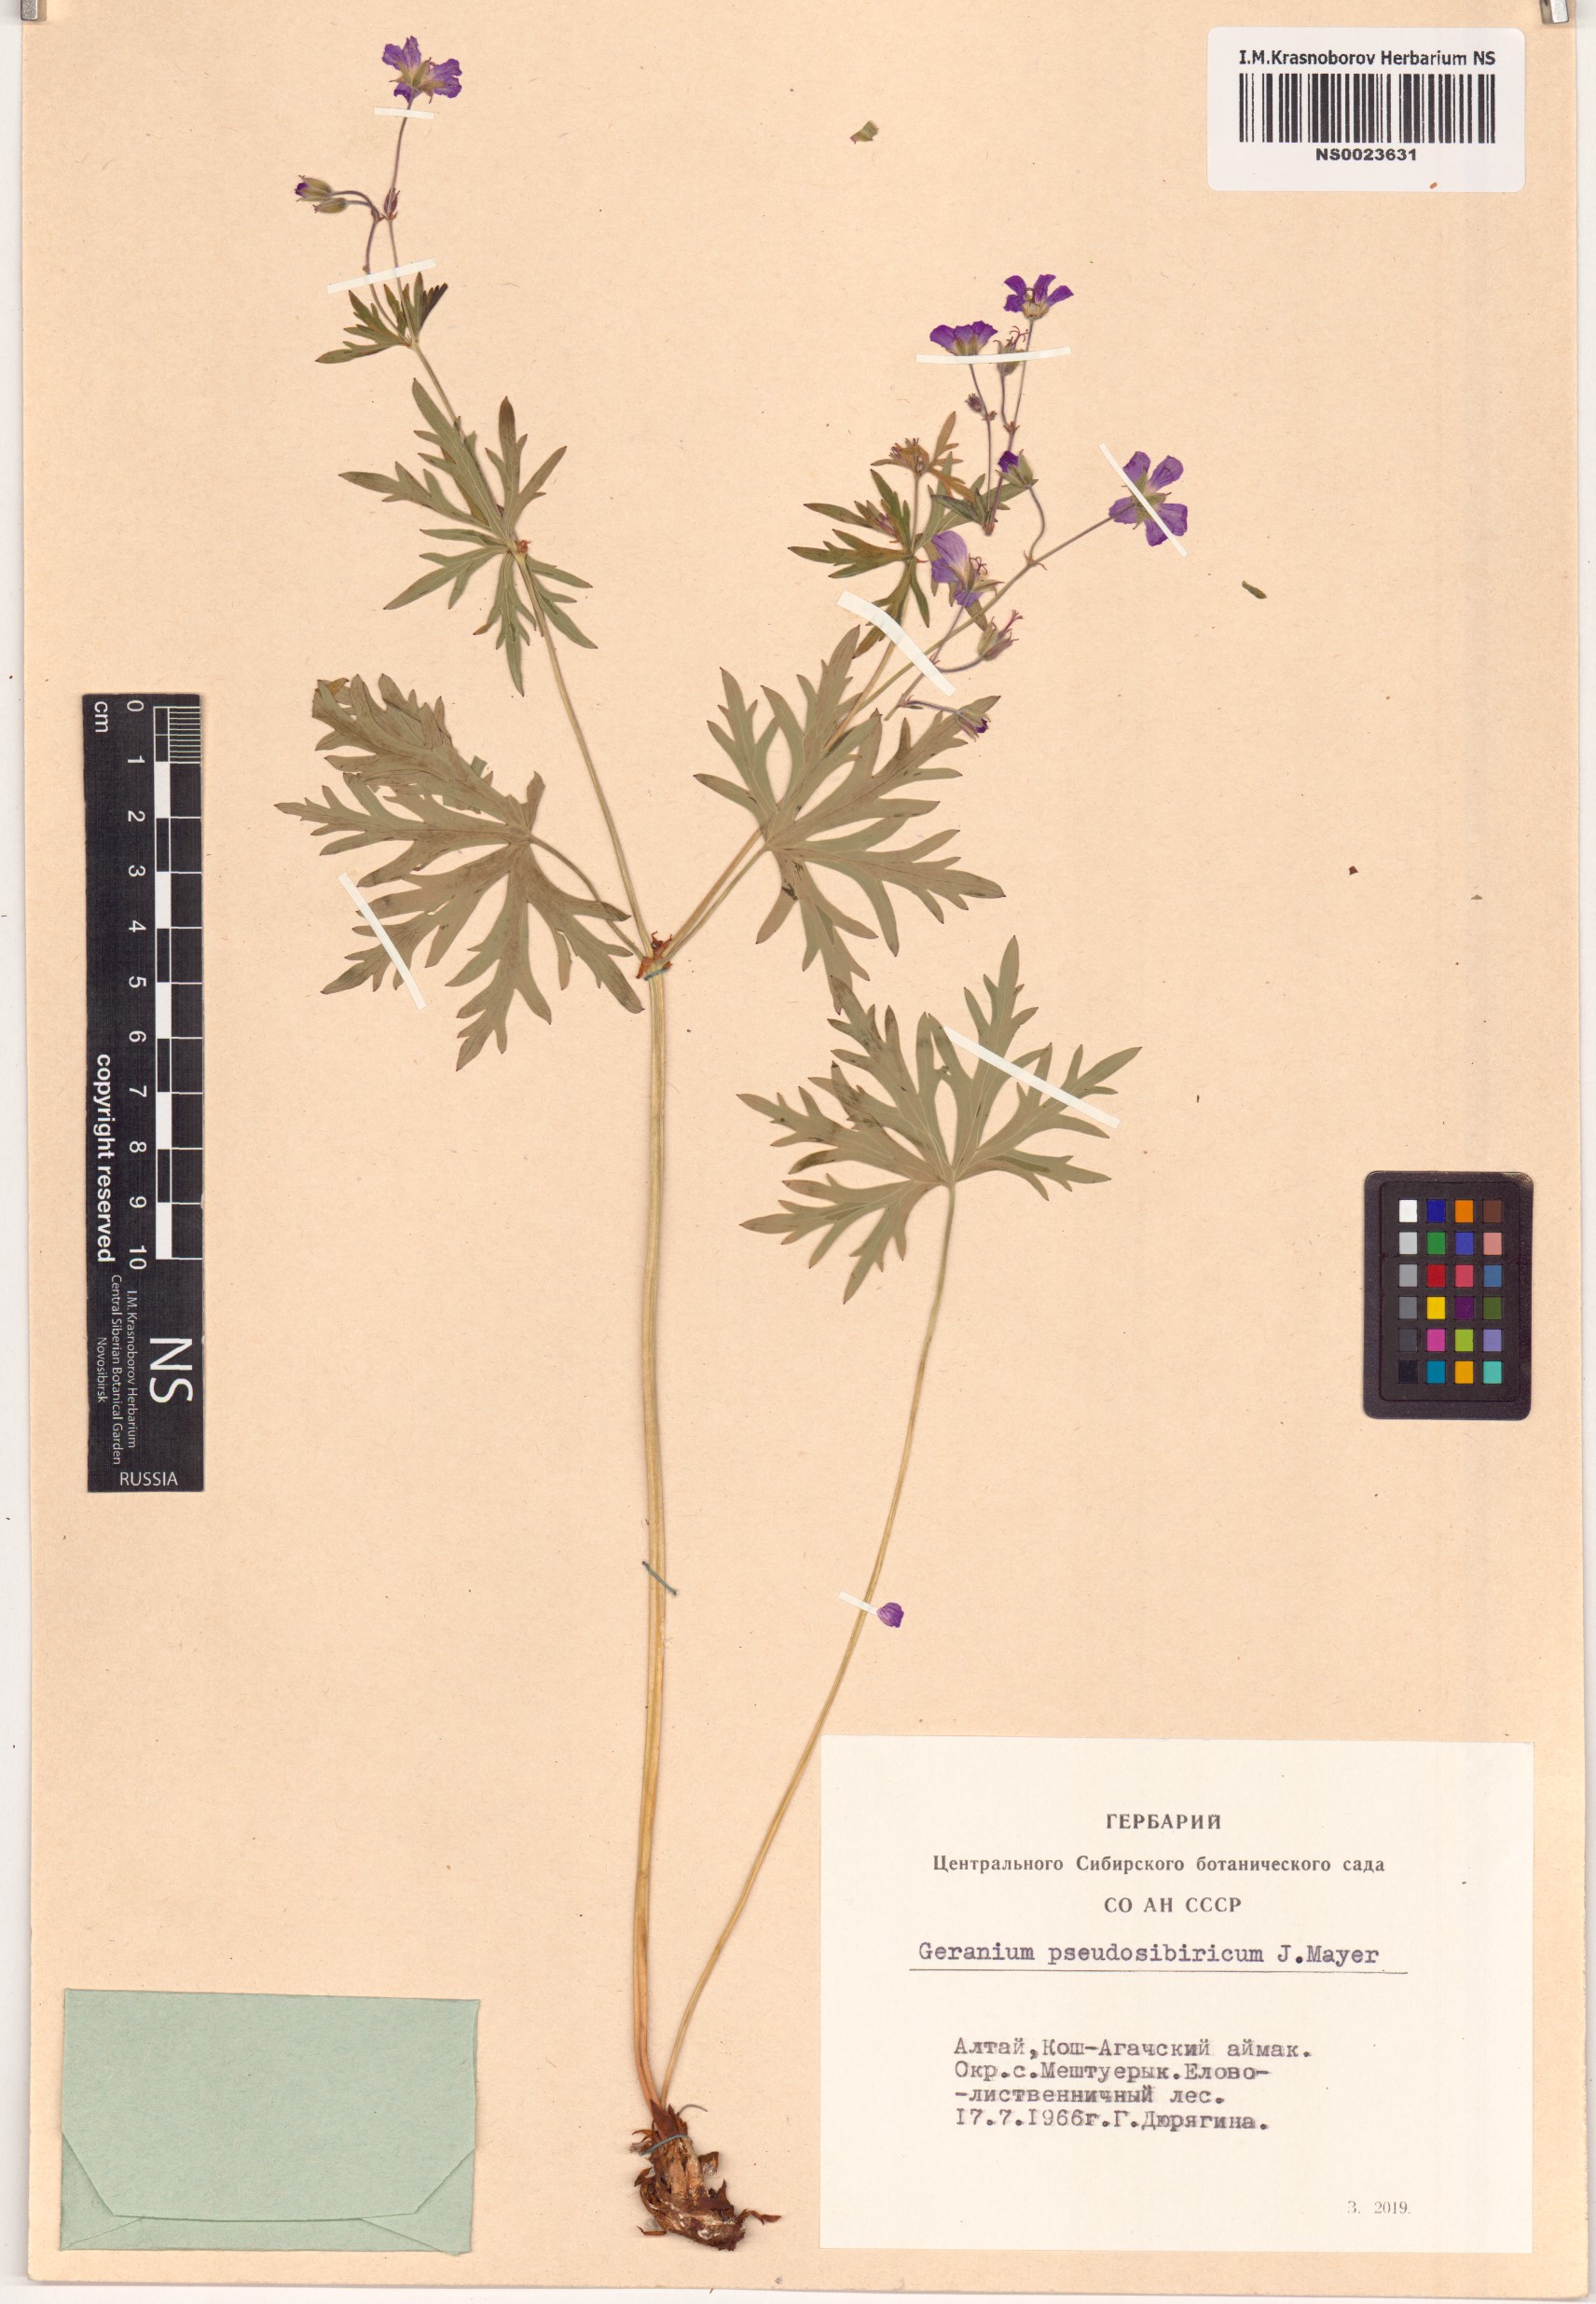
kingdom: Plantae
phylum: Tracheophyta
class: Magnoliopsida
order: Geraniales
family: Geraniaceae
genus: Geranium
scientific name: Geranium pseudosibiricum
